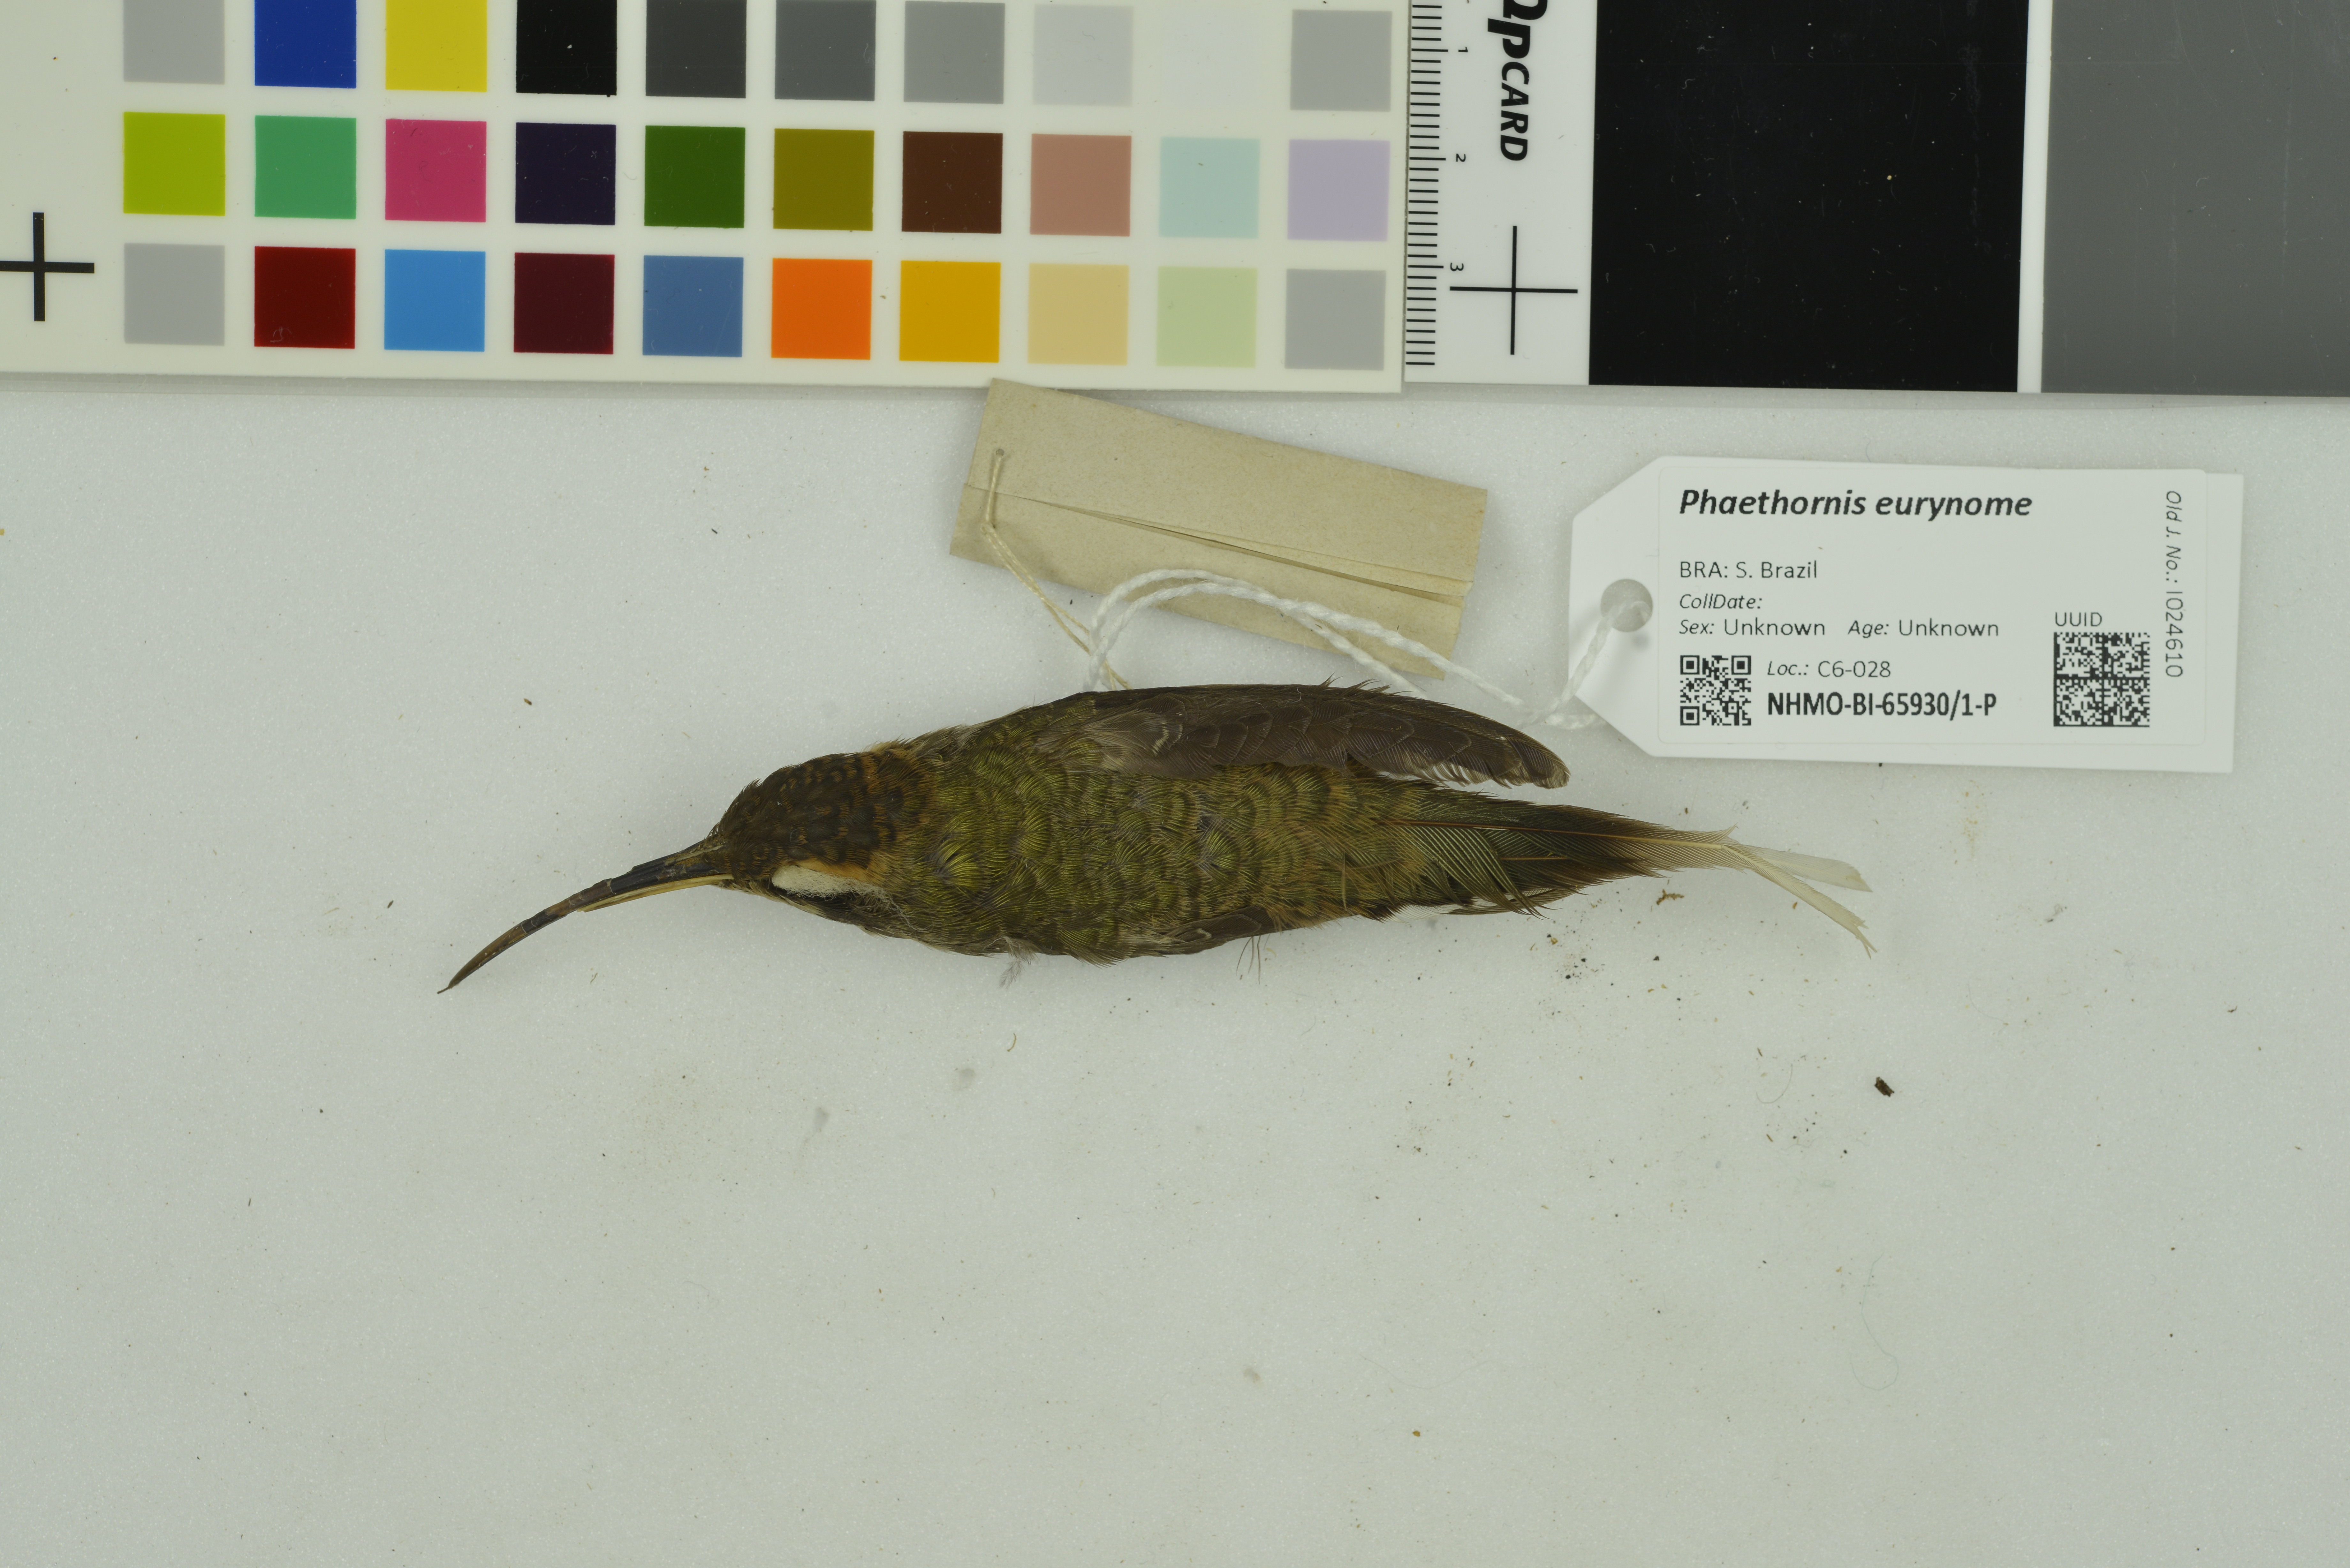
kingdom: Animalia
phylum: Chordata
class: Aves
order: Apodiformes
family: Trochilidae
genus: Phaethornis
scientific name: Phaethornis eurynome
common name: Scale-throated hermit
